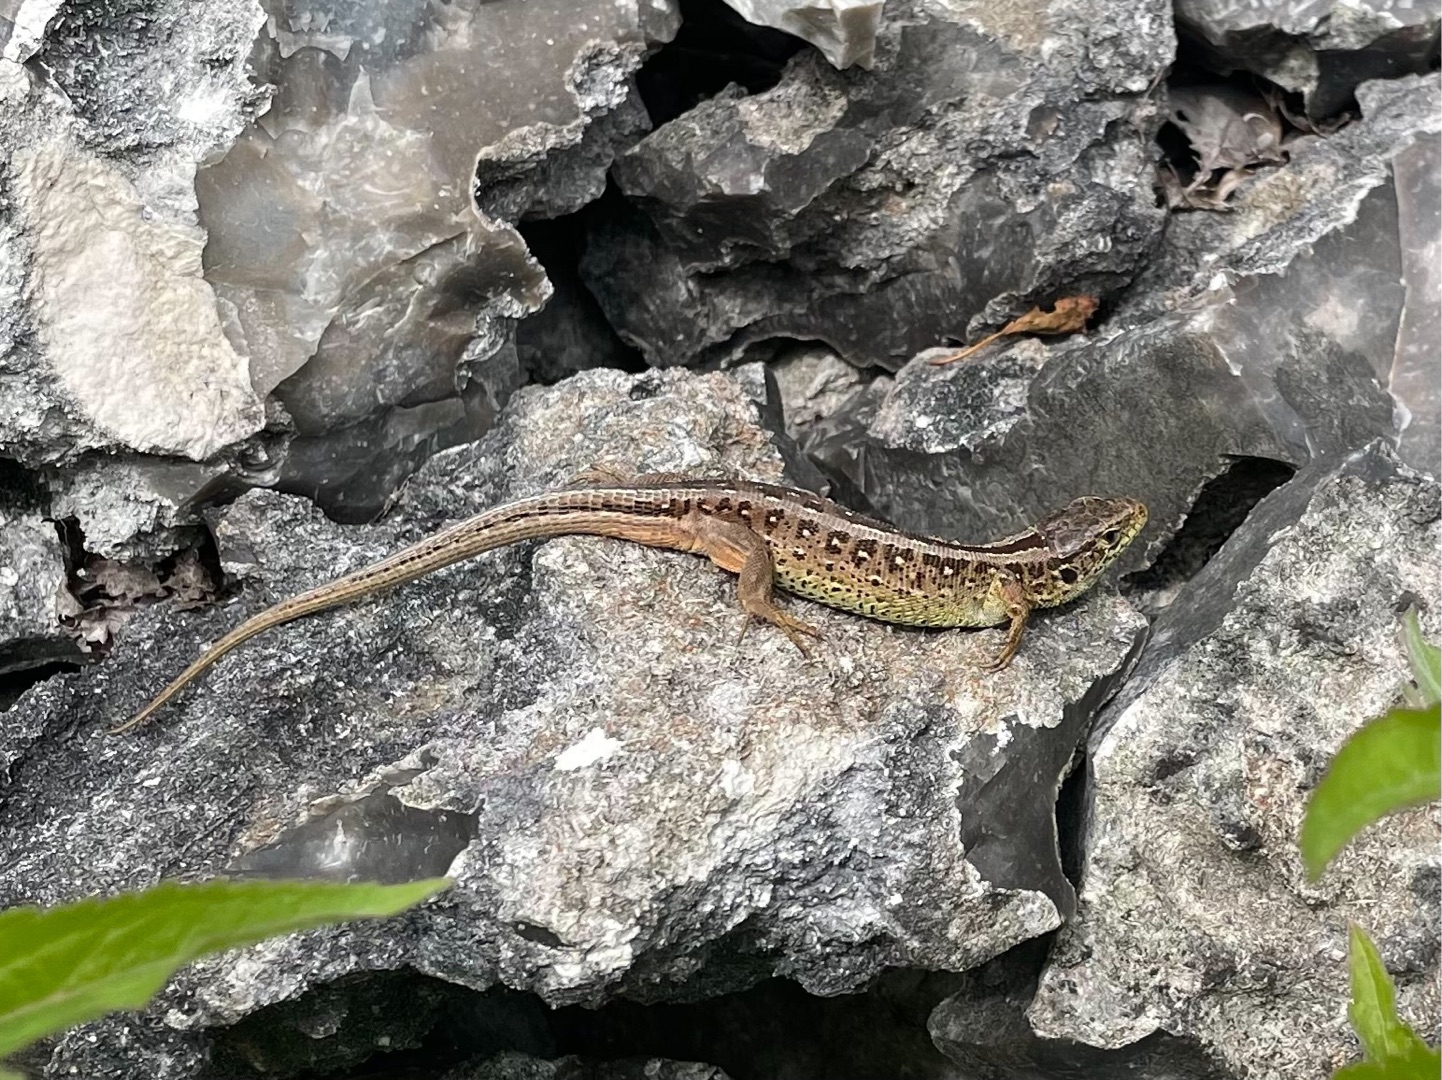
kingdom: Animalia
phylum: Chordata
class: Squamata
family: Lacertidae
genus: Lacerta
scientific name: Lacerta agilis
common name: Markfirben
